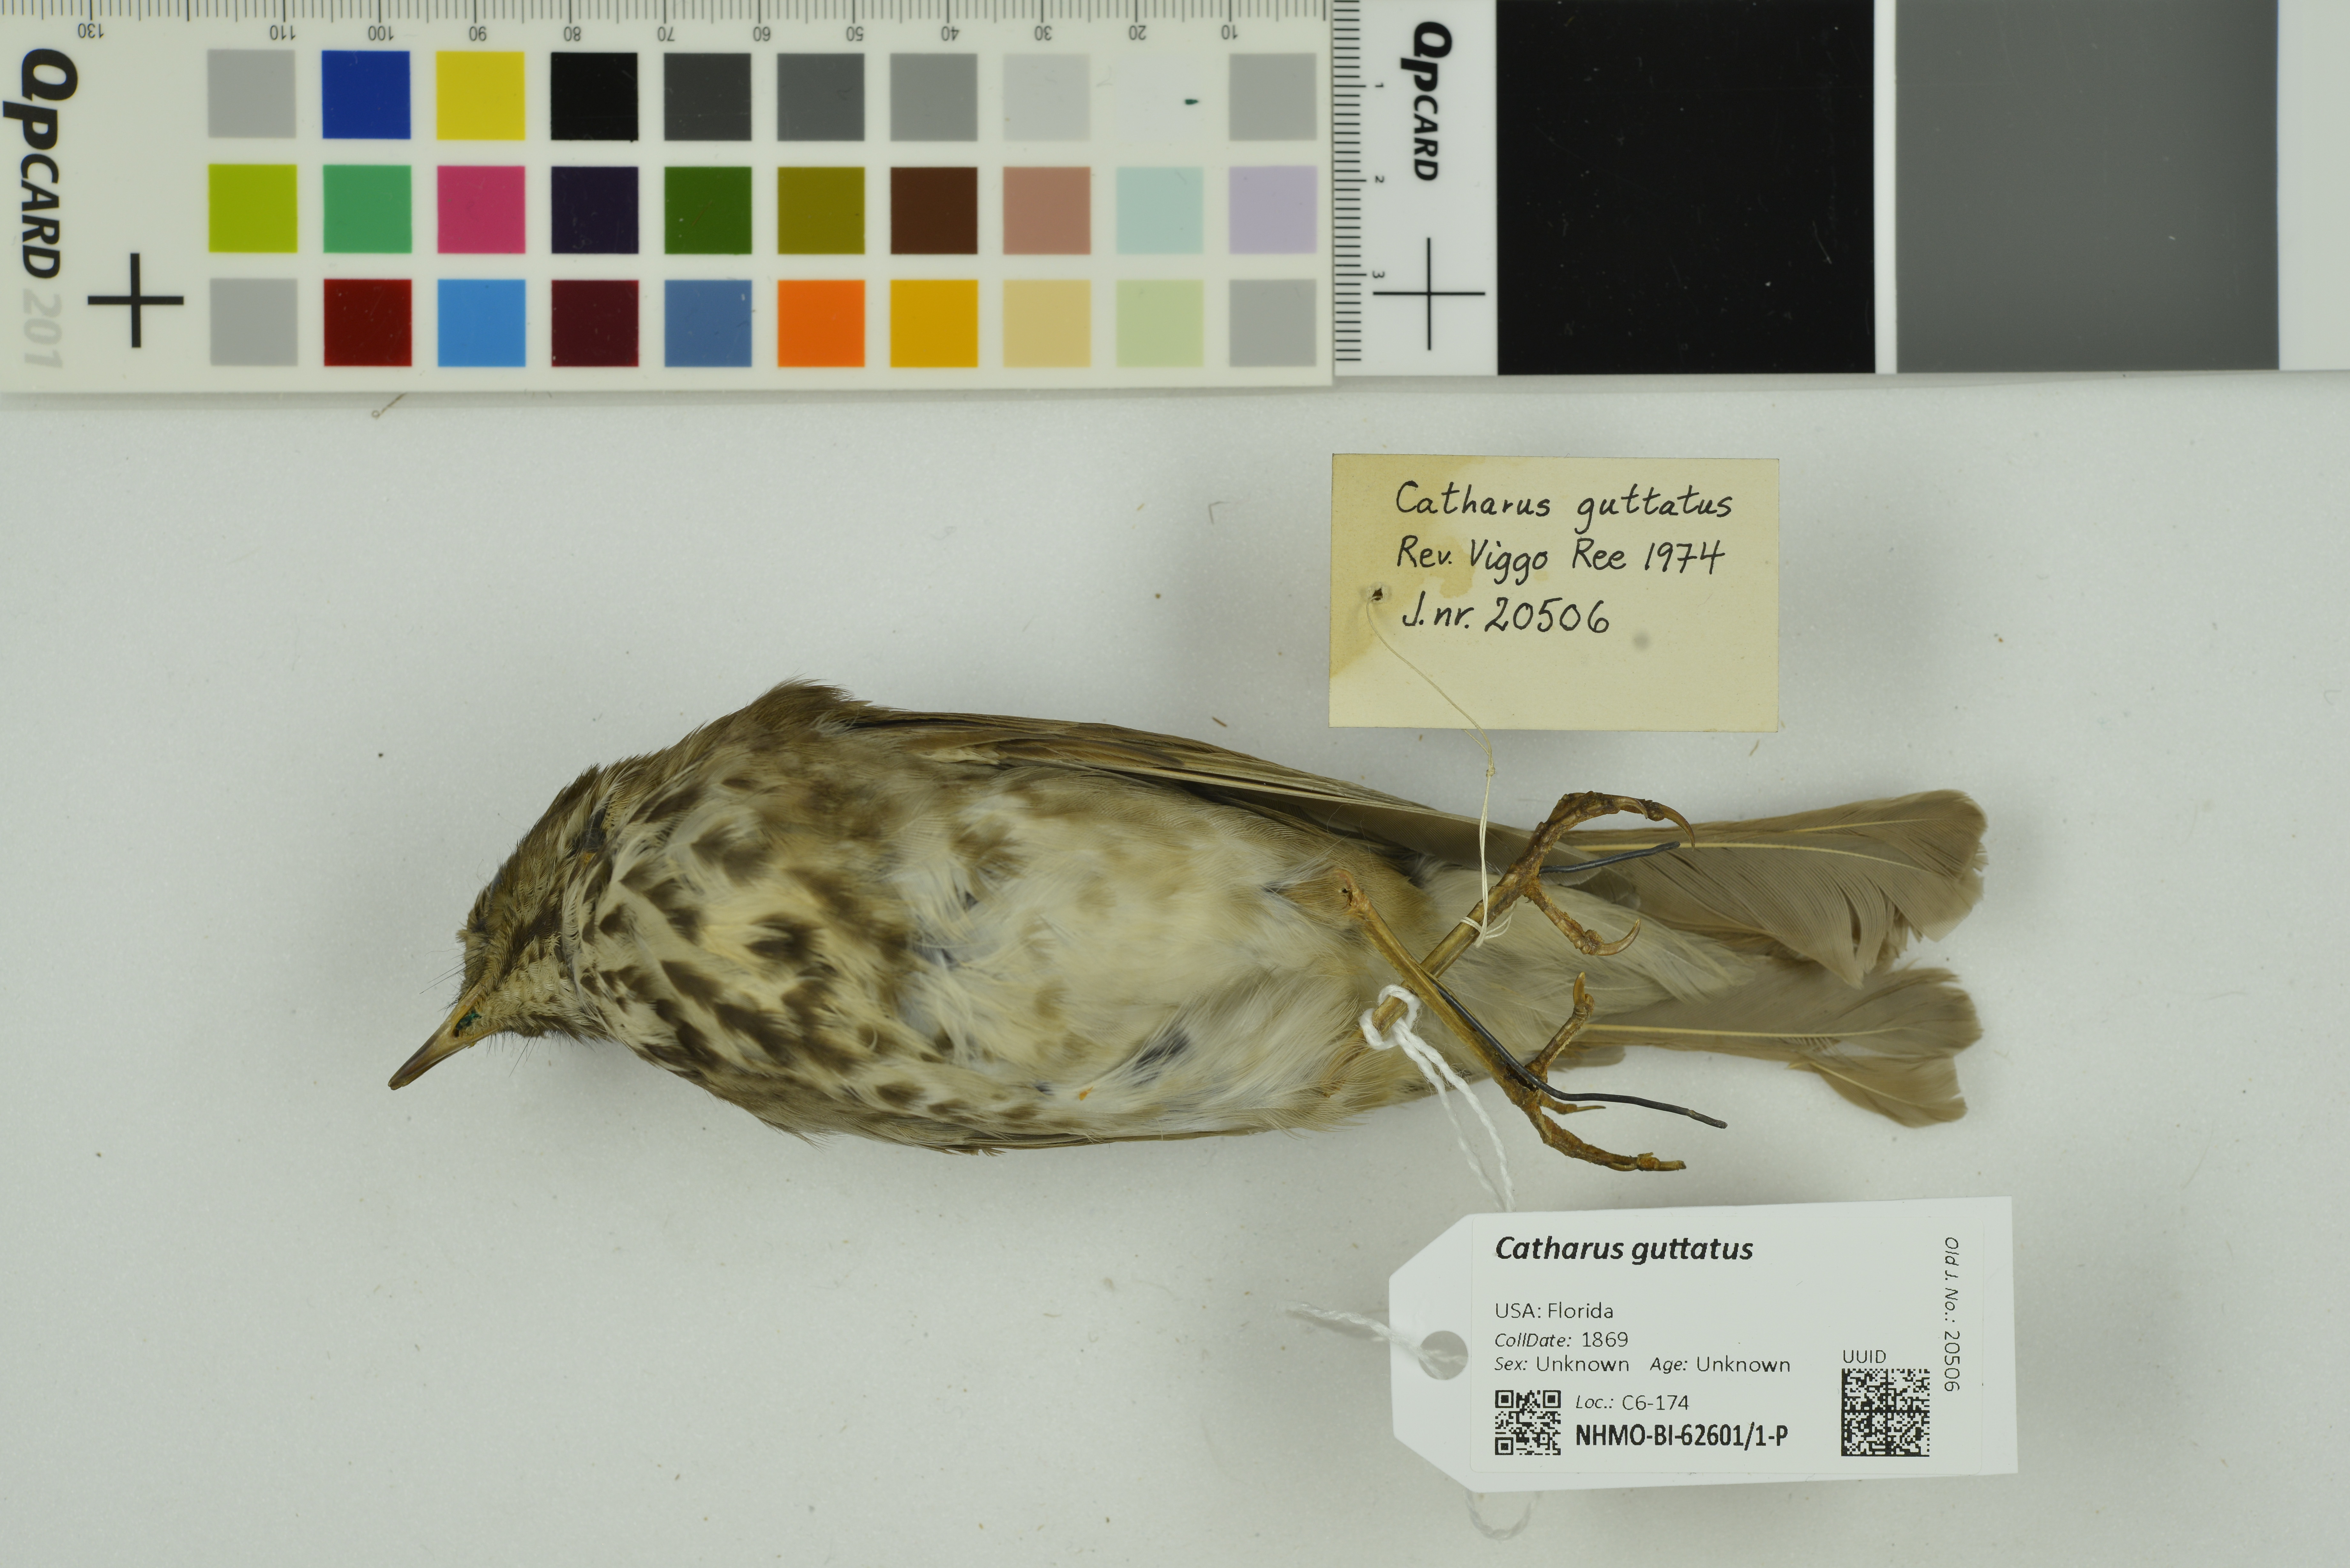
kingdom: Animalia
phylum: Chordata
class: Aves
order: Passeriformes
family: Turdidae
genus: Catharus
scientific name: Catharus guttatus
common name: Hermit thrush
